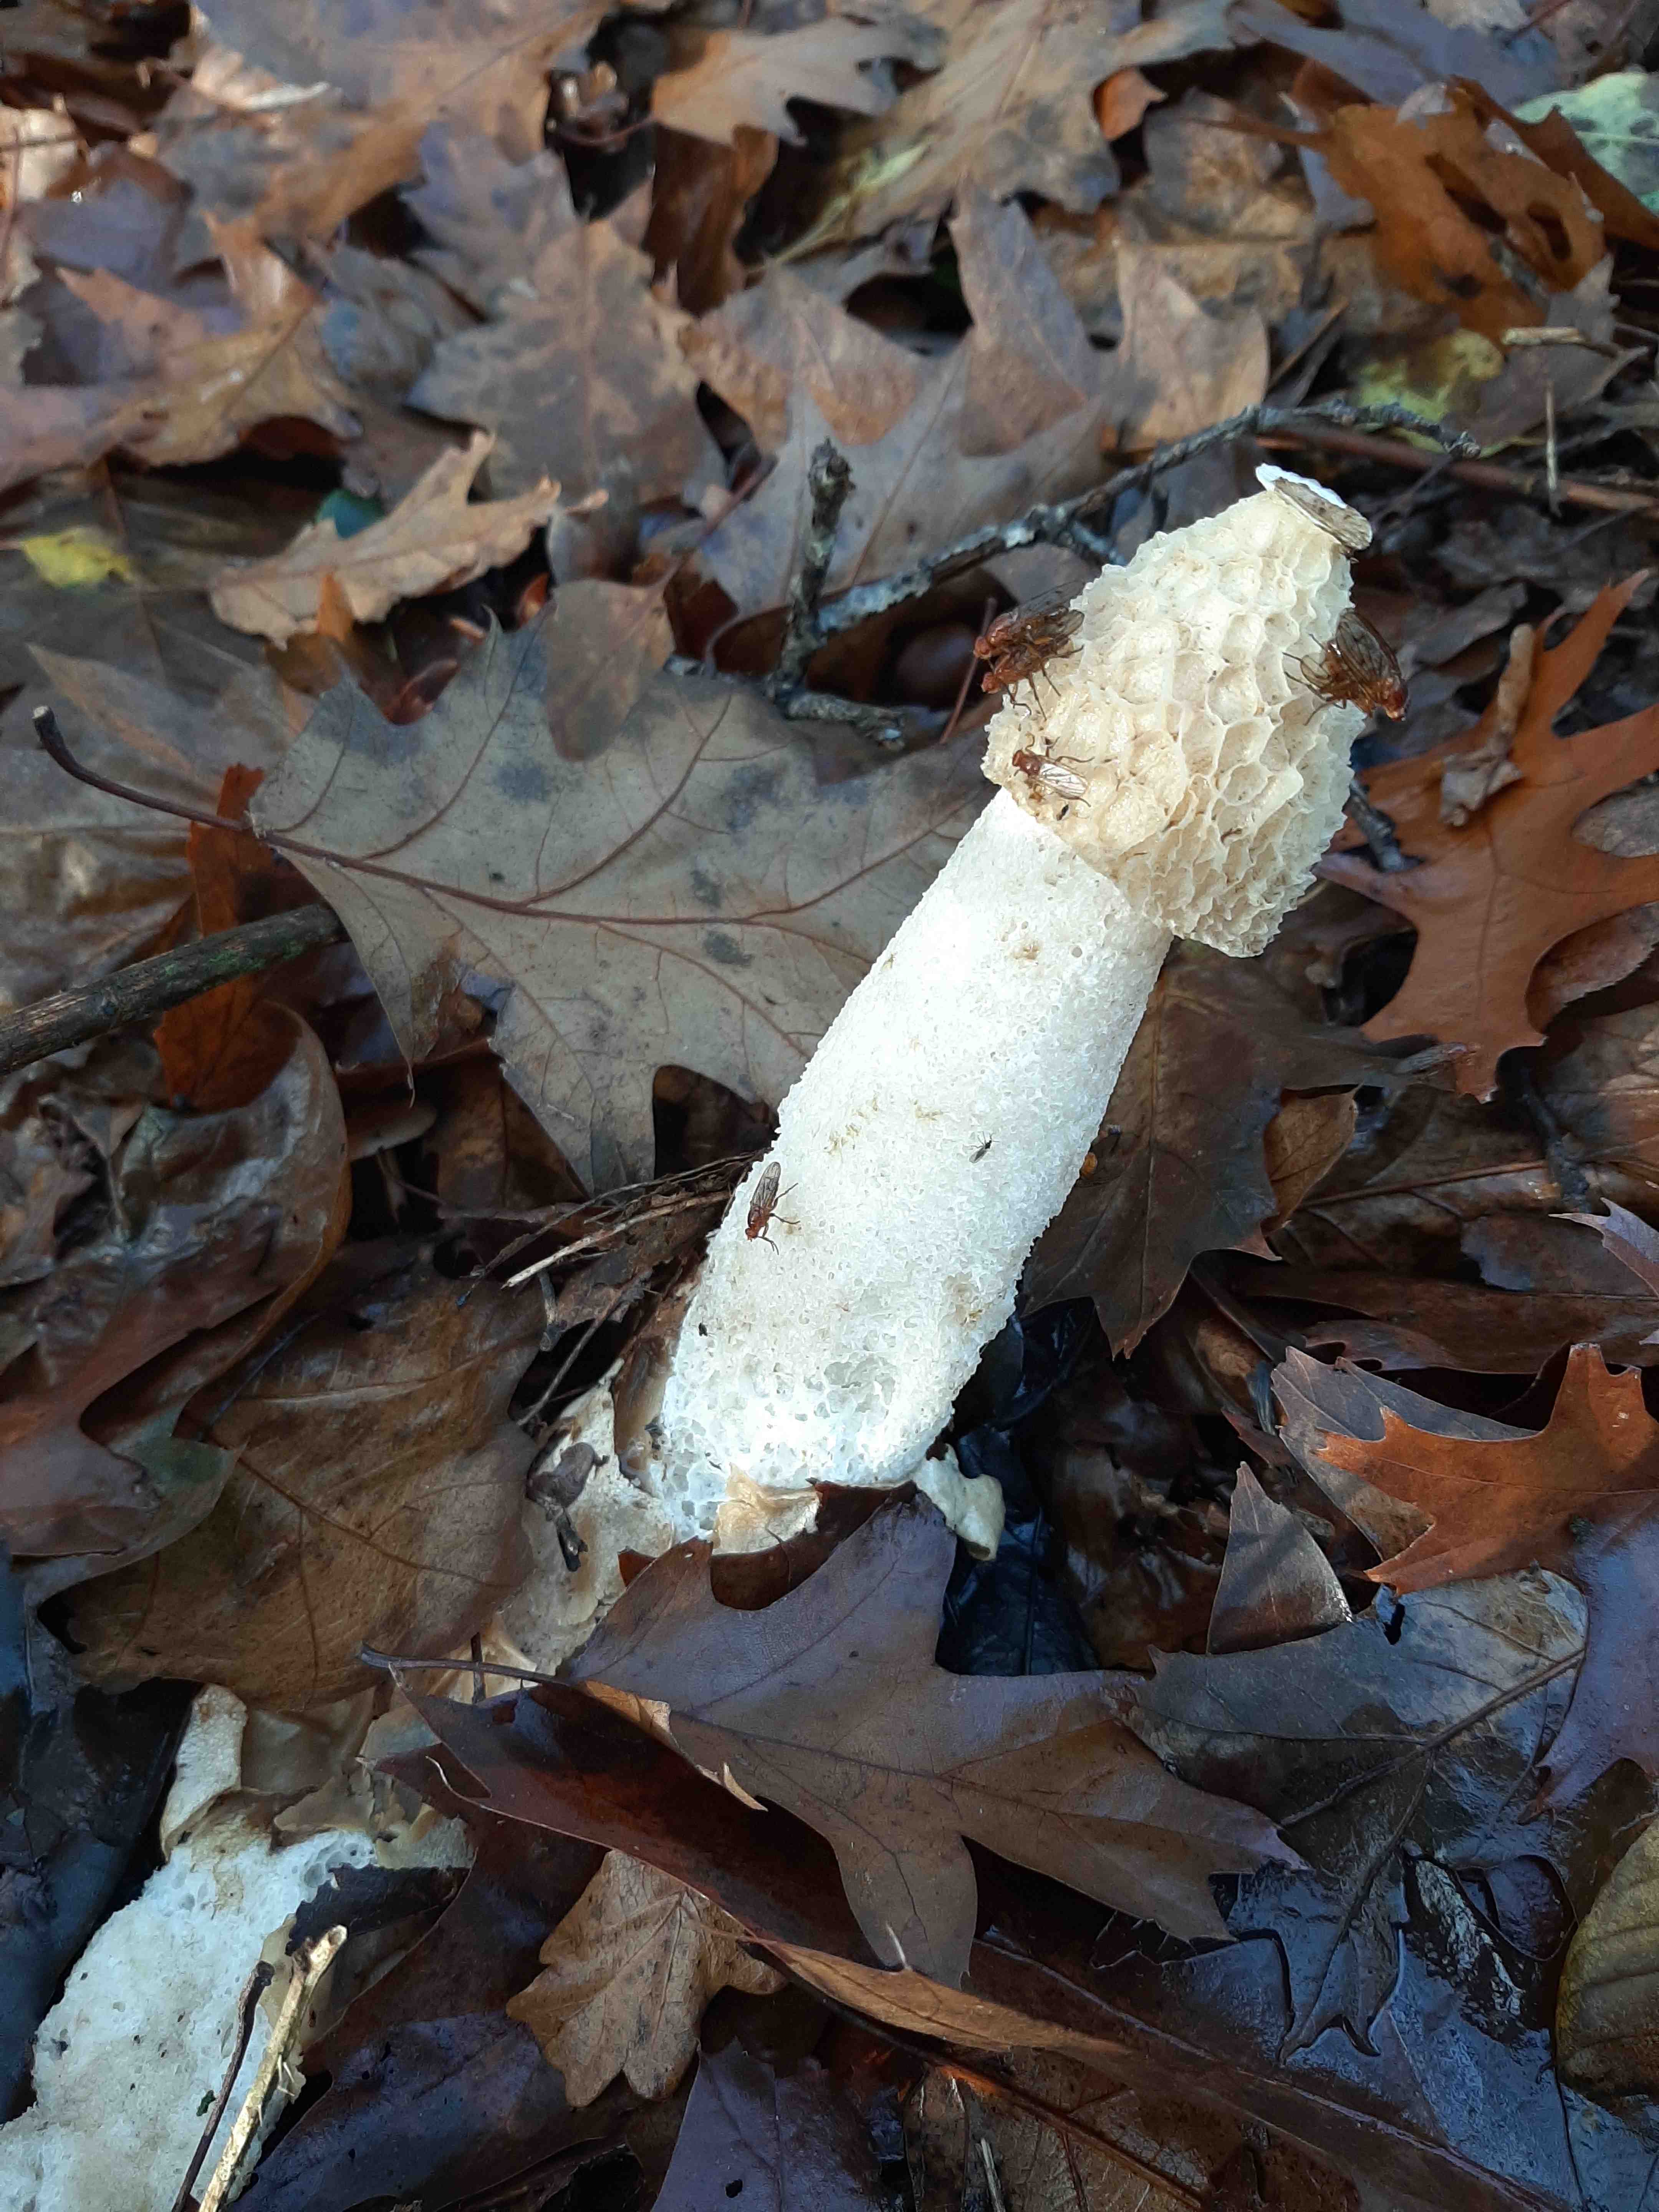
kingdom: Fungi
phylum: Basidiomycota
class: Agaricomycetes
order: Phallales
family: Phallaceae
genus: Phallus
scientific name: Phallus impudicus
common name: almindelig stinksvamp
